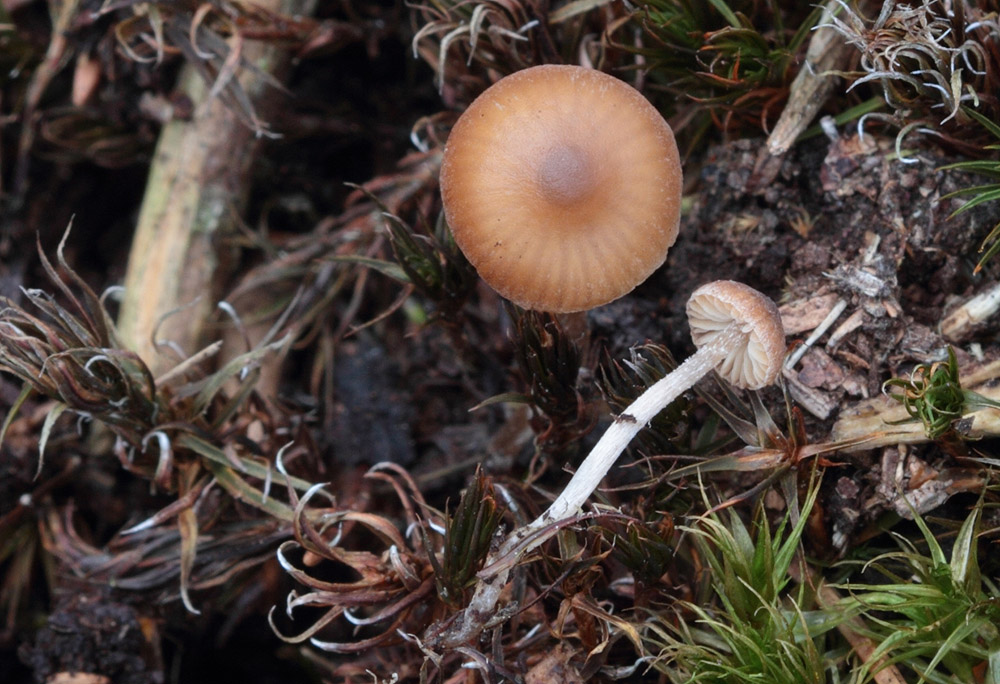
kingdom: Fungi
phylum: Basidiomycota
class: Agaricomycetes
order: Agaricales
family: Lyophyllaceae
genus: Sagaranella
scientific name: Sagaranella tylicolor
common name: kvælstof-gråblad
